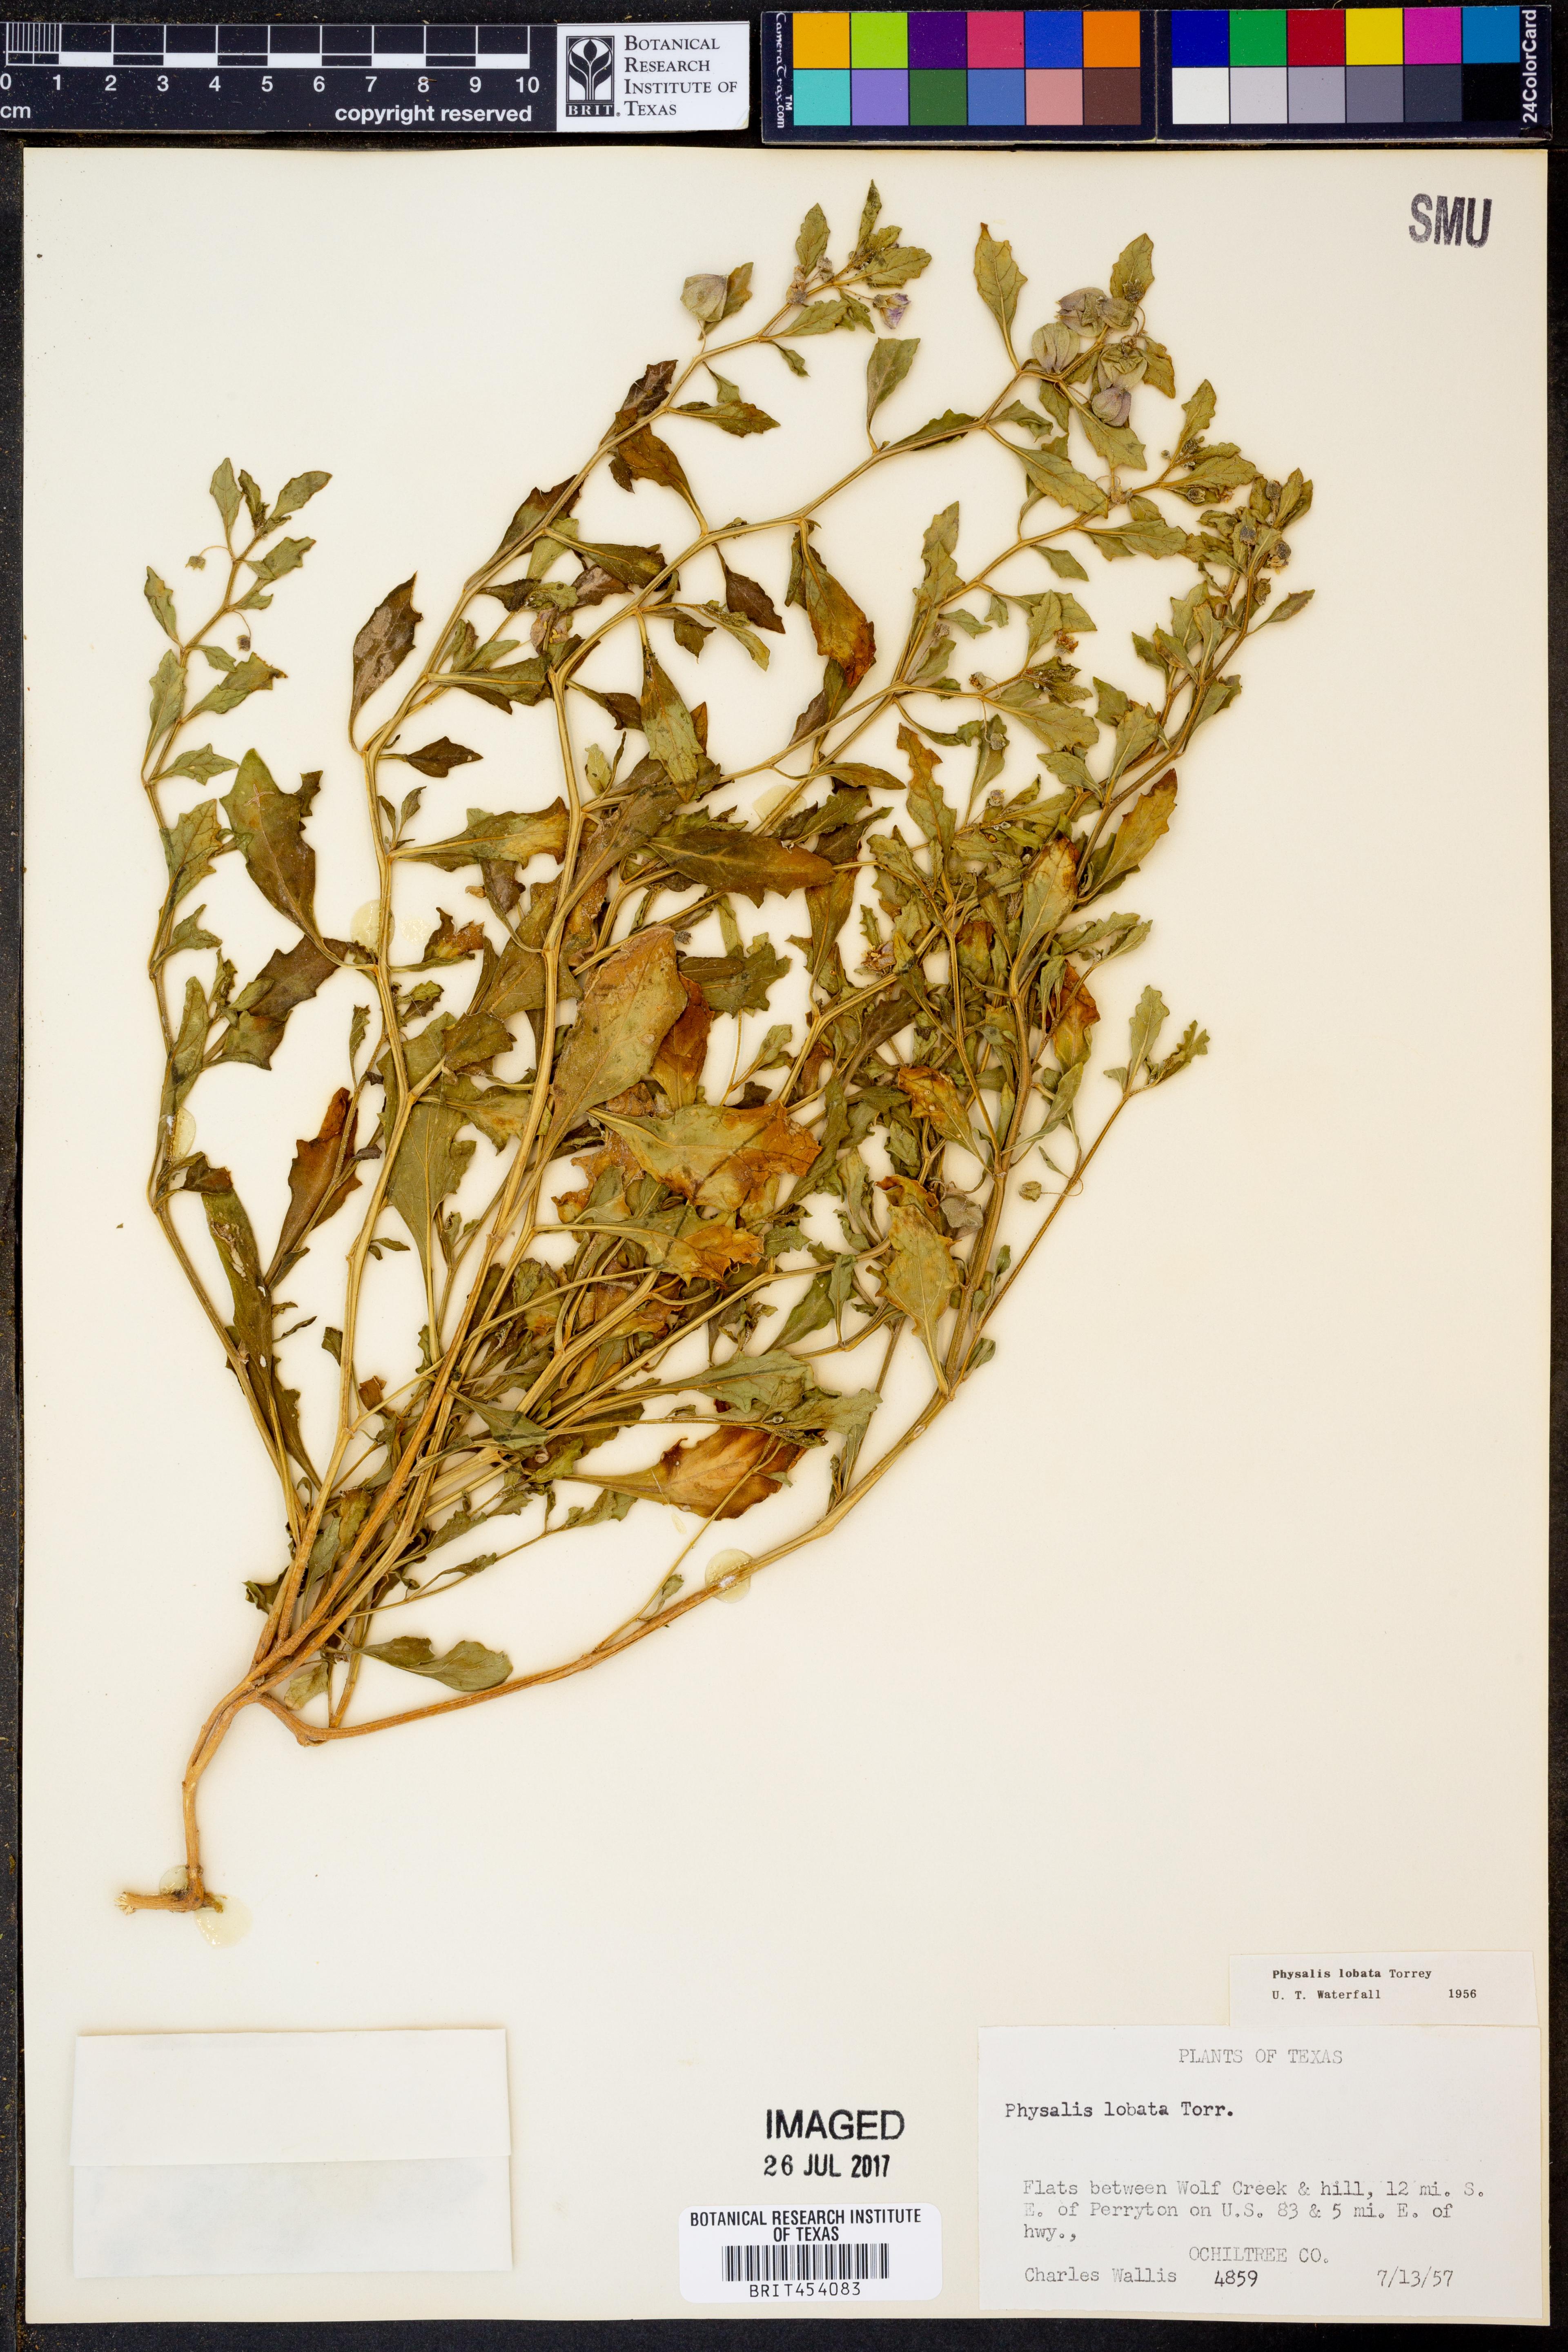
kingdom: Plantae
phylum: Tracheophyta
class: Magnoliopsida
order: Solanales
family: Solanaceae
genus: Quincula
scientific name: Quincula lobata
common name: Purple-ground-cherry
